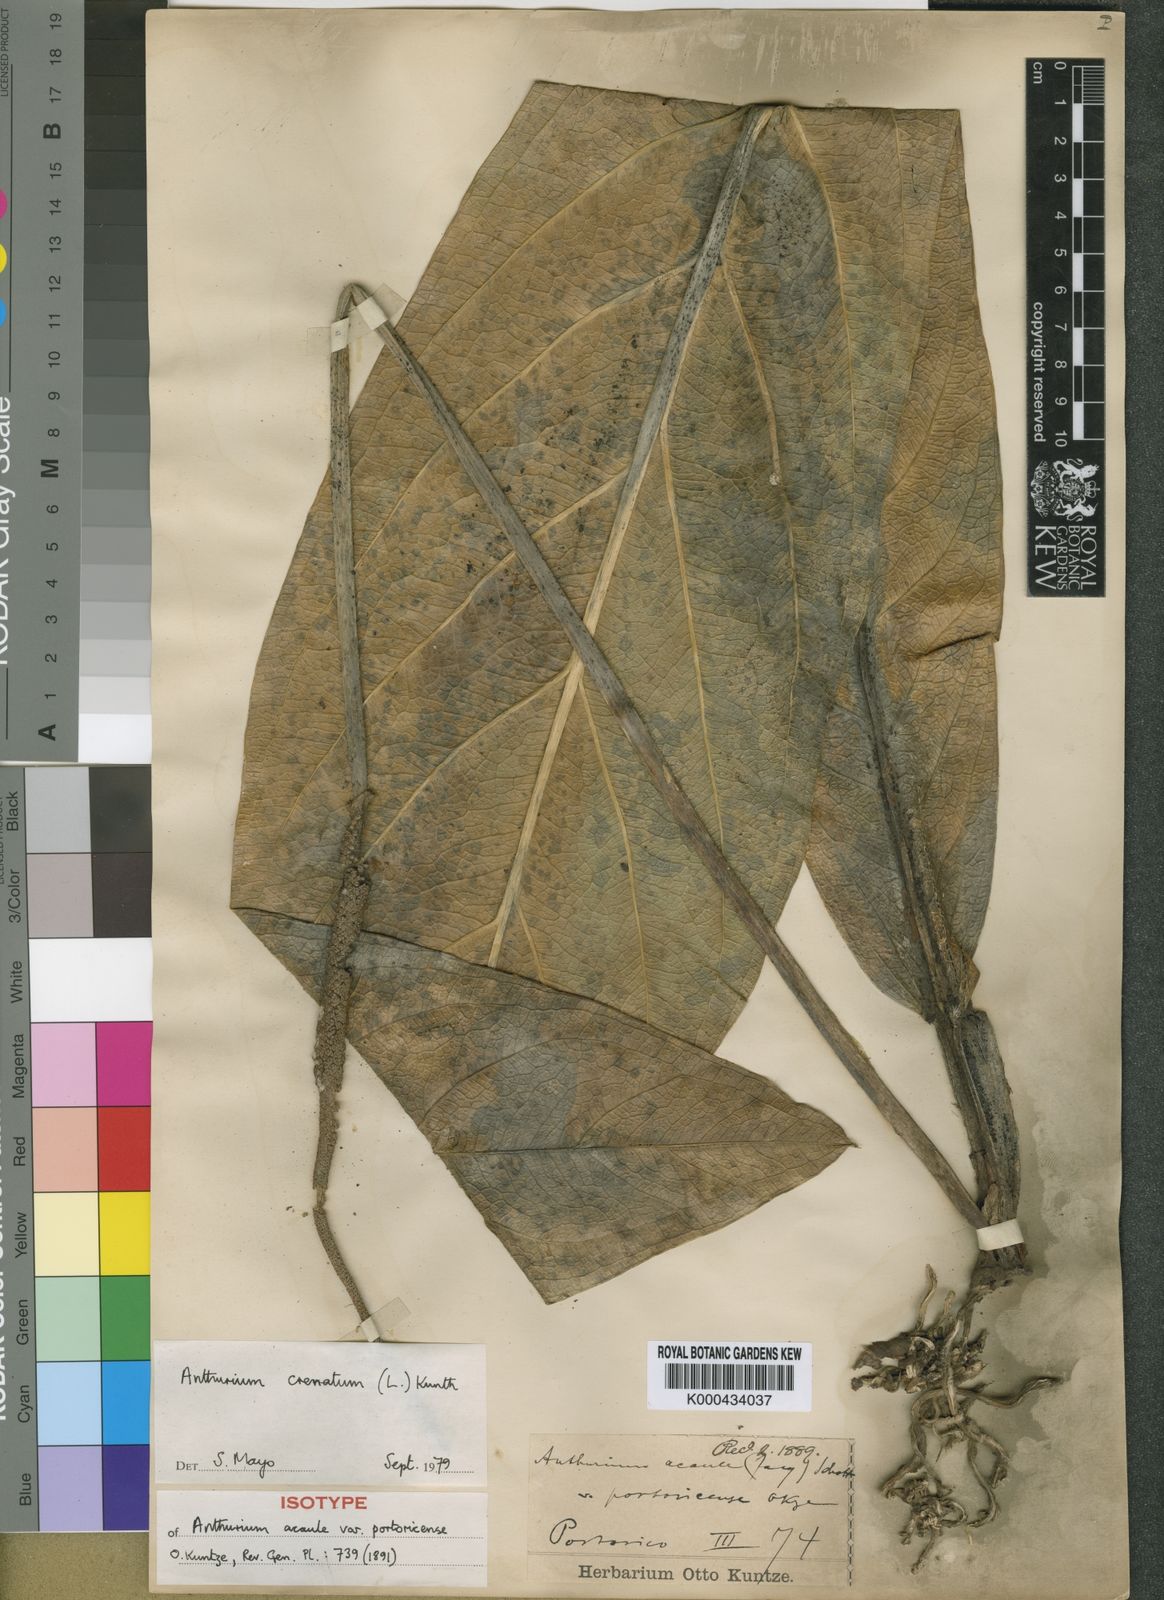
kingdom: Plantae
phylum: Tracheophyta
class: Liliopsida
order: Alismatales
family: Araceae
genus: Anthurium
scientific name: Anthurium crenatum
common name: Scalloped laceleaf
